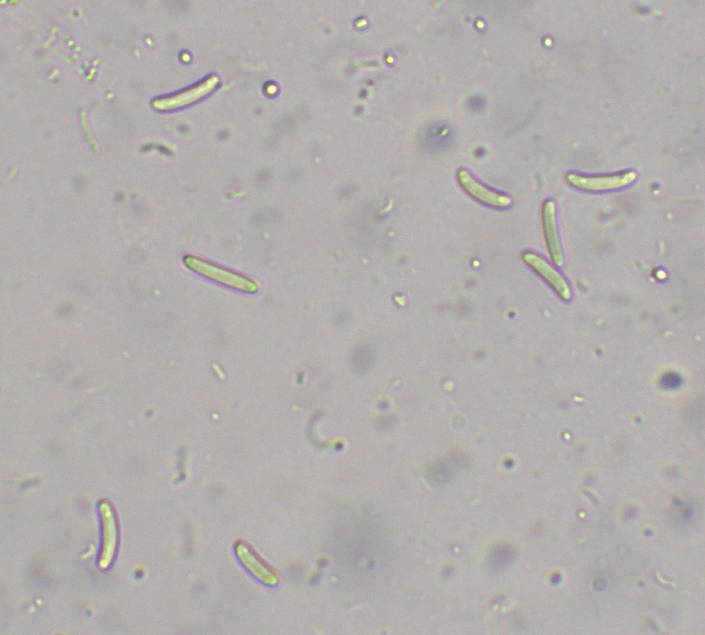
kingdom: Fungi
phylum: Ascomycota
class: Sordariomycetes
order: Xylariales
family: Diatrypaceae
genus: Eutypella
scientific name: Eutypella stellulata
